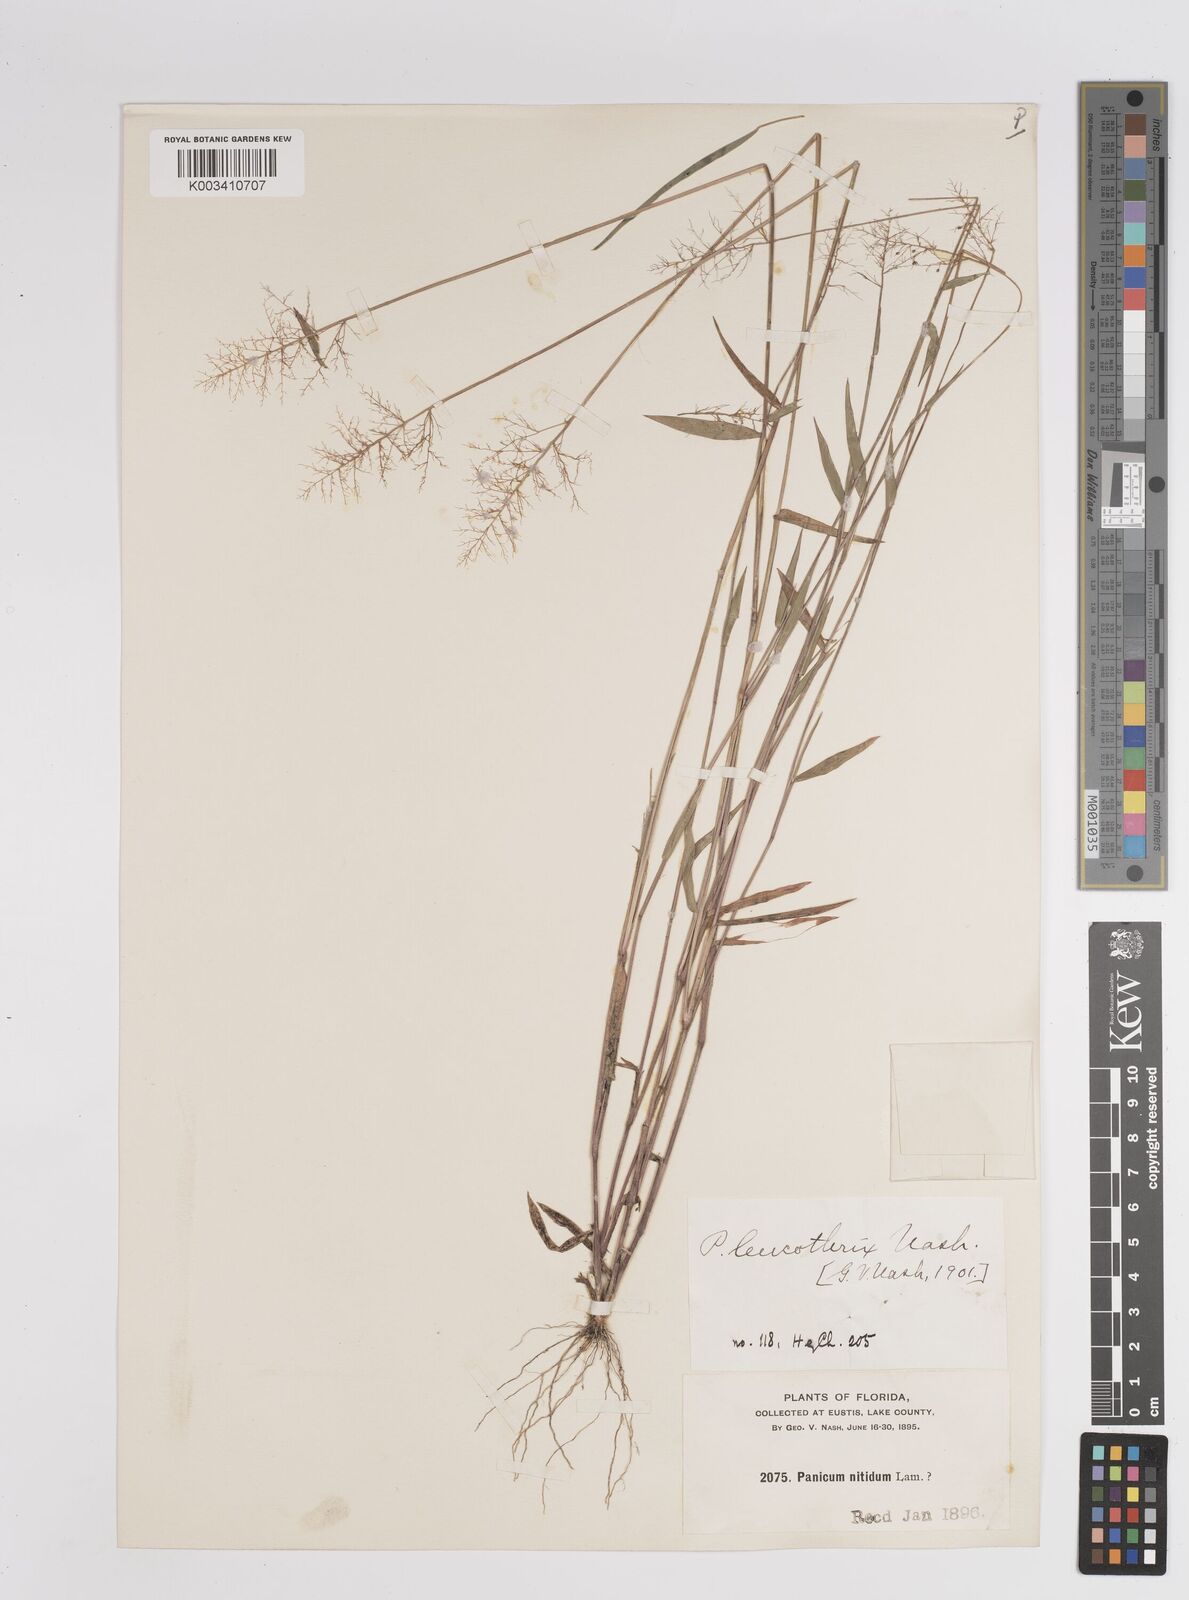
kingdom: Plantae
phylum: Tracheophyta
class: Liliopsida
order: Poales
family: Poaceae
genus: Dichanthelium
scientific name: Dichanthelium leucothrix
